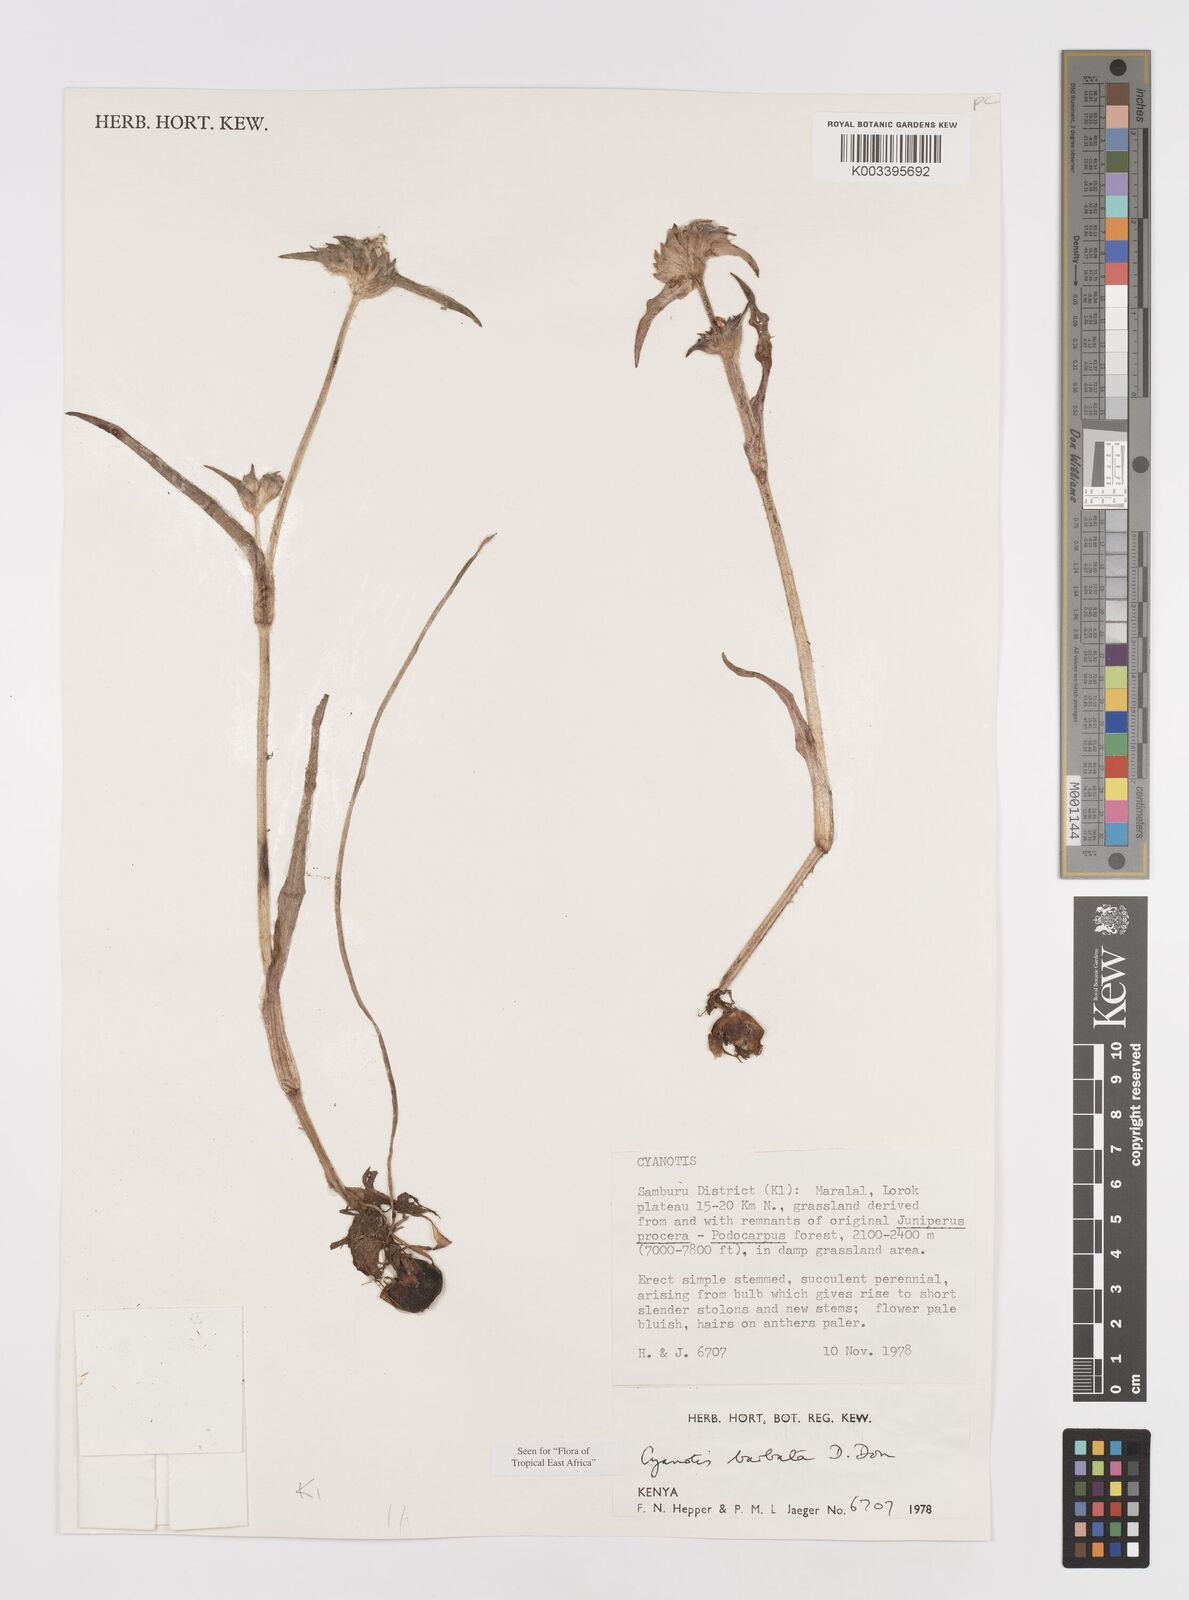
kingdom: Plantae
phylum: Tracheophyta
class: Liliopsida
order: Commelinales
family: Commelinaceae
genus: Cyanotis
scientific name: Cyanotis vaga
